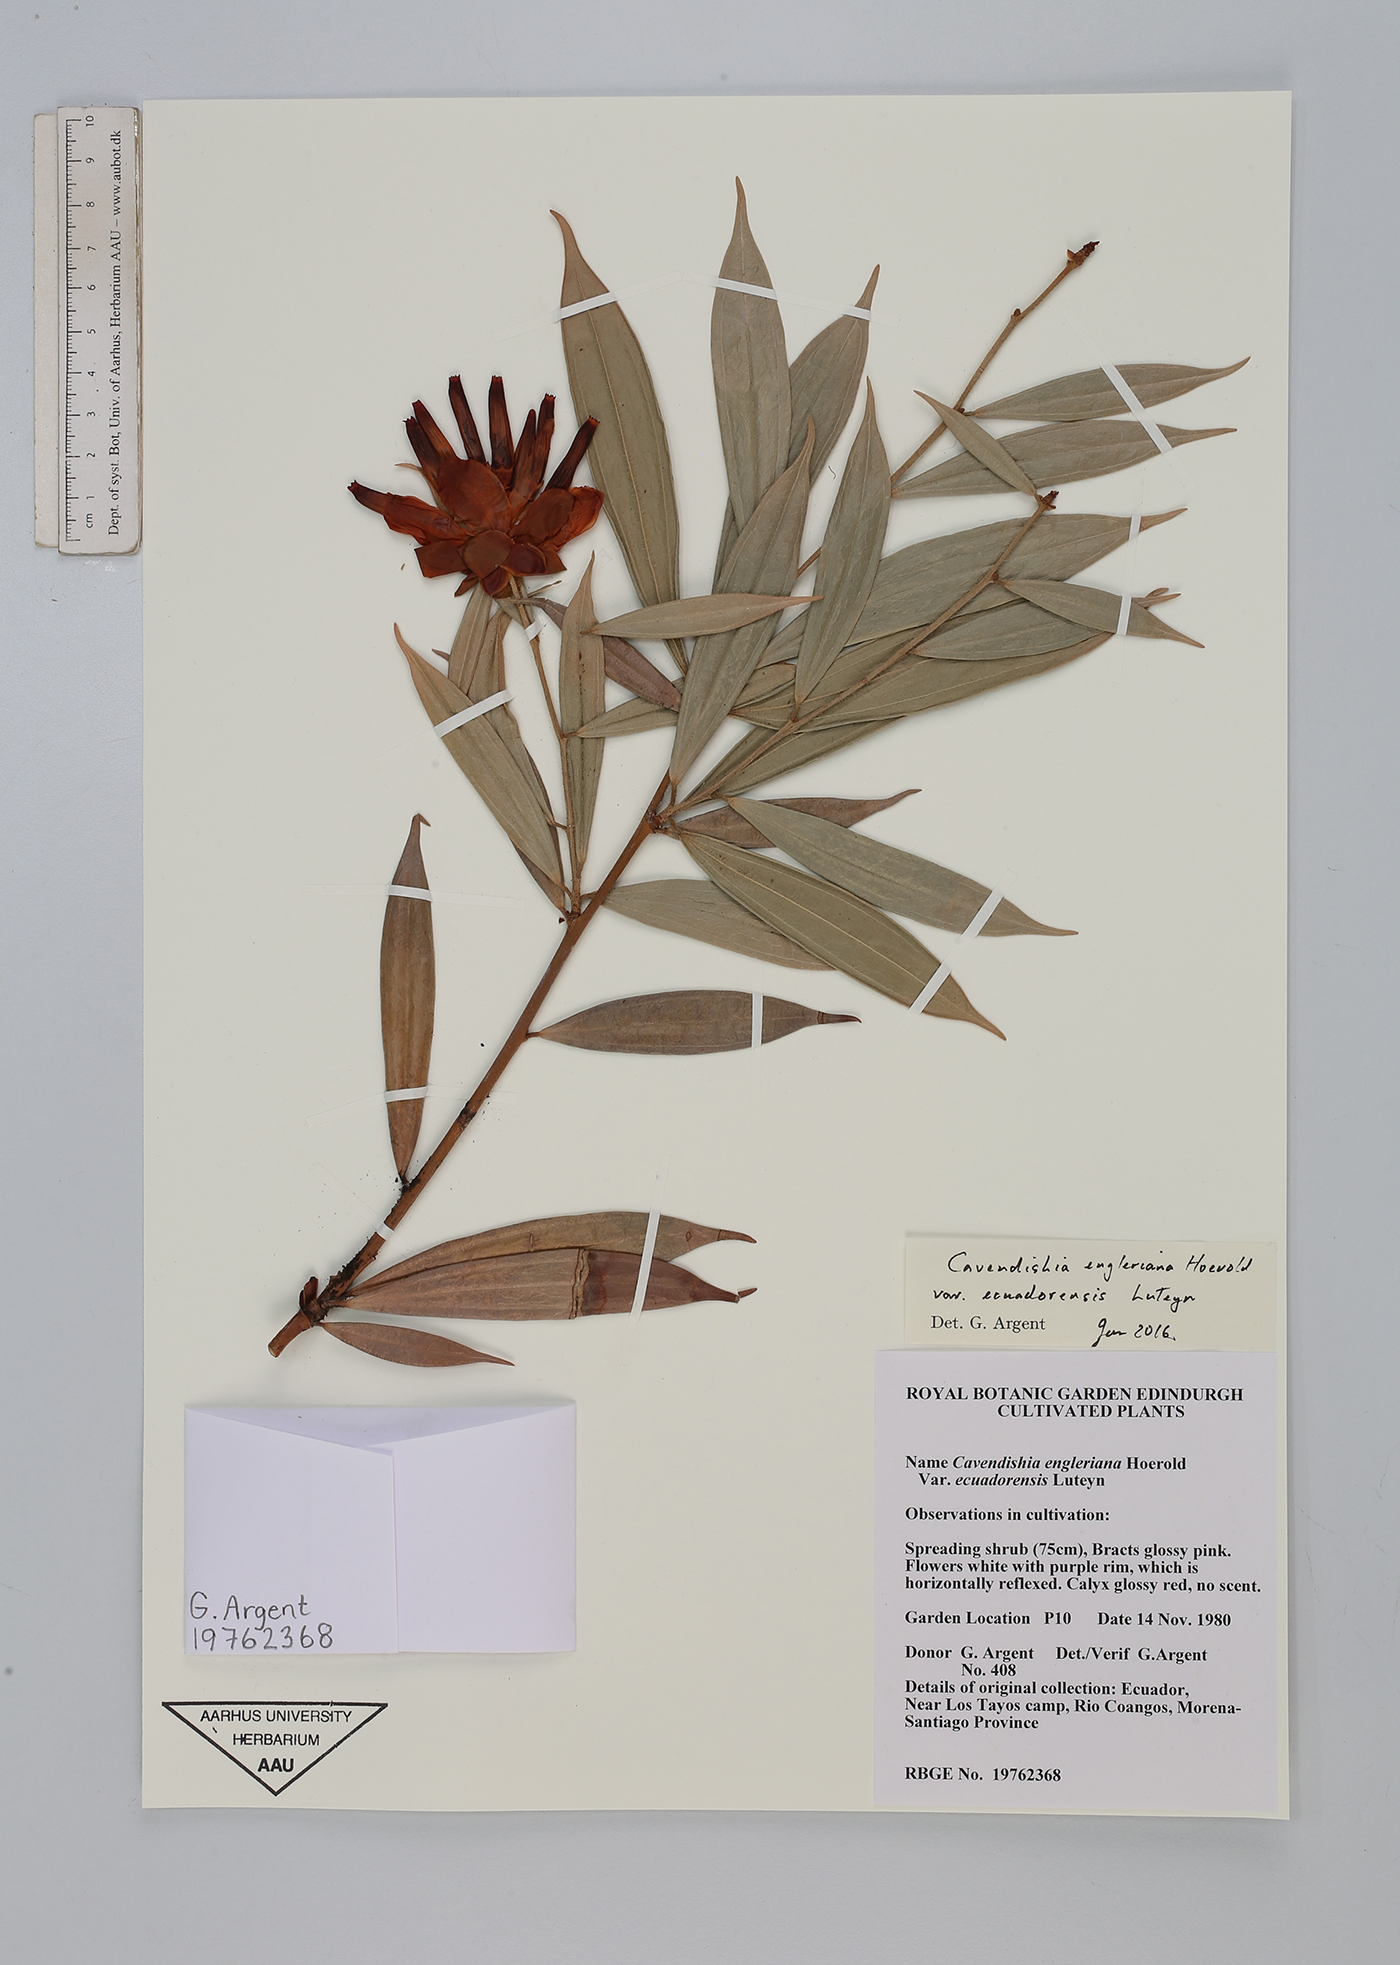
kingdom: Plantae
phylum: Tracheophyta
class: Magnoliopsida
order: Ericales
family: Ericaceae
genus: Cavendishia
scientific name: Cavendishia engleriana
